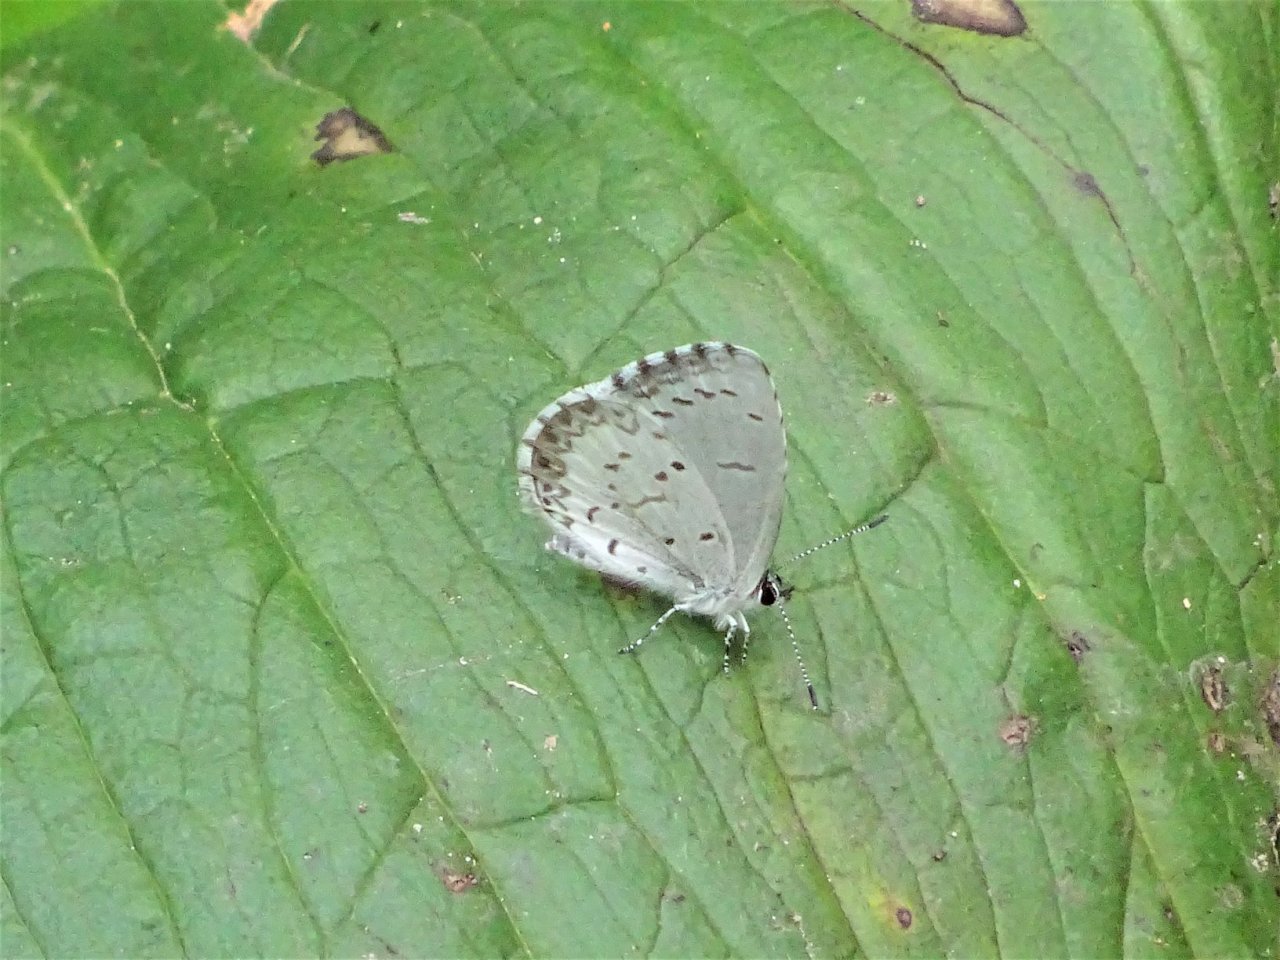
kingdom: Animalia
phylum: Arthropoda
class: Insecta
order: Lepidoptera
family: Lycaenidae
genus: Celastrina
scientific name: Celastrina lucia
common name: Northern Spring Azure
